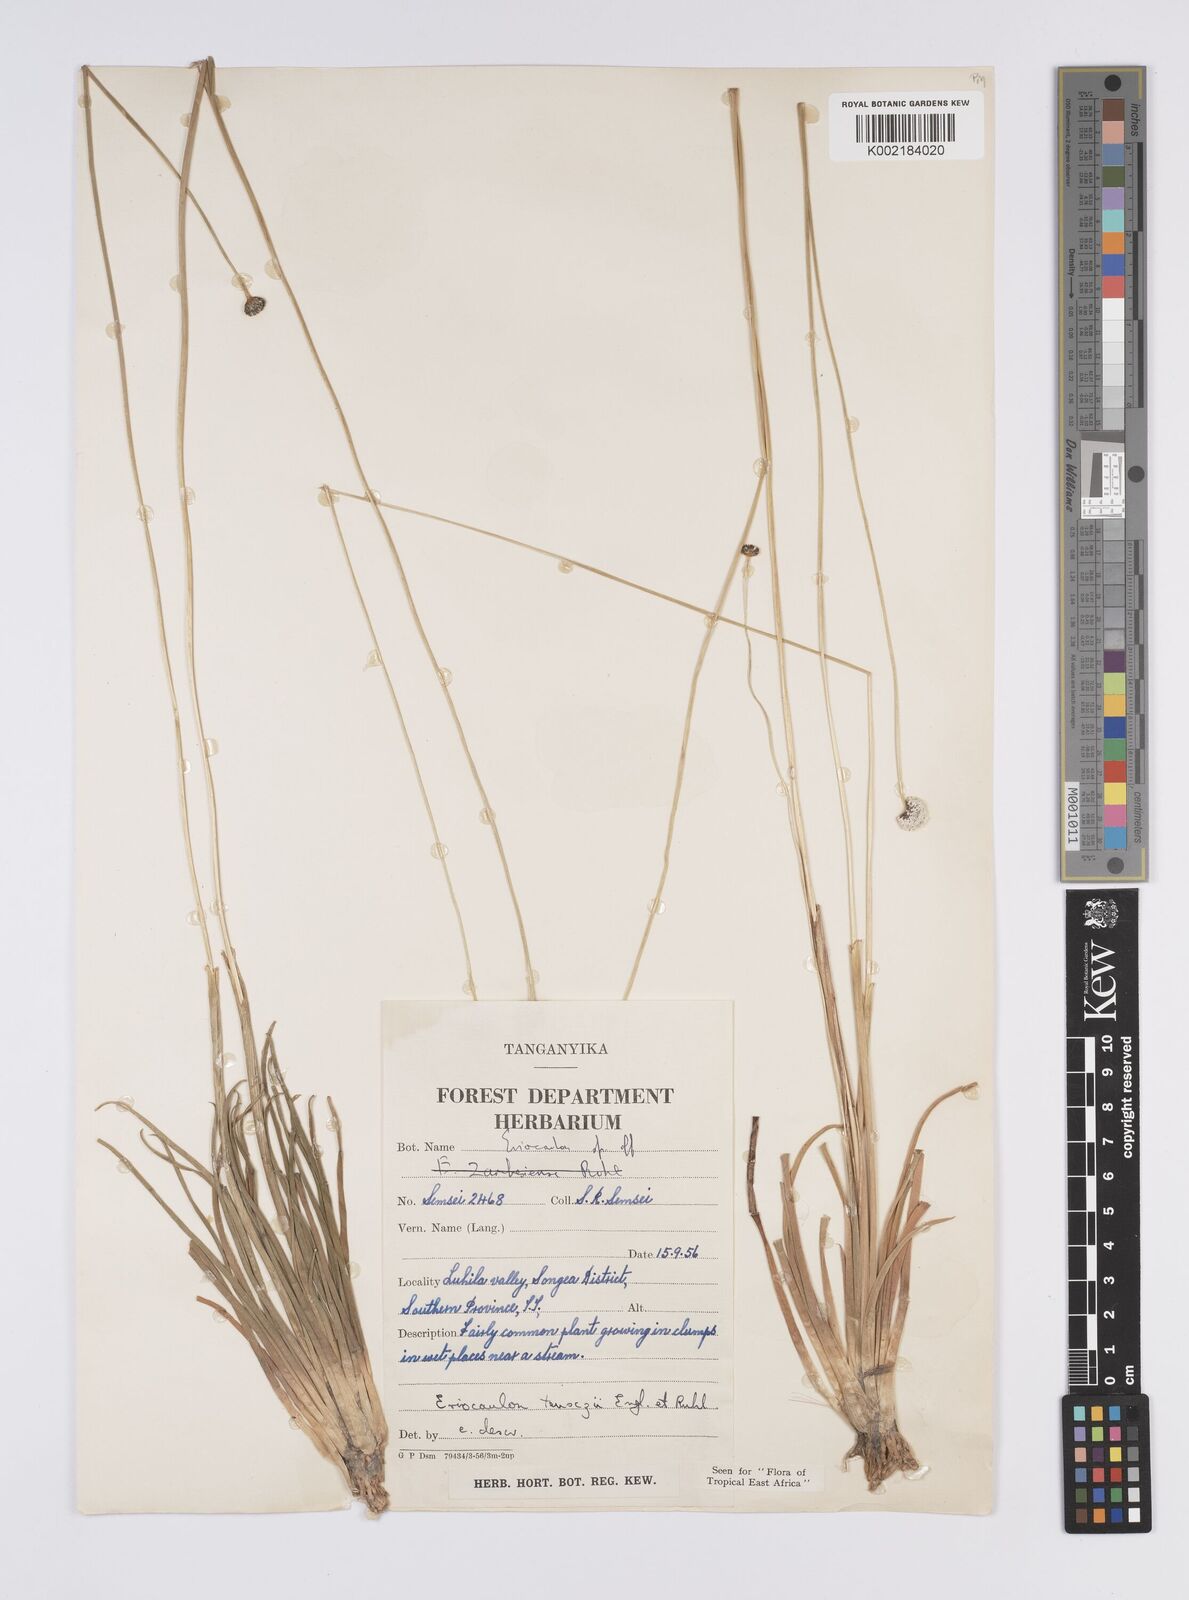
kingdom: Plantae
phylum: Tracheophyta
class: Liliopsida
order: Poales
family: Eriocaulaceae
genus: Eriocaulon
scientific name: Eriocaulon teusczii
